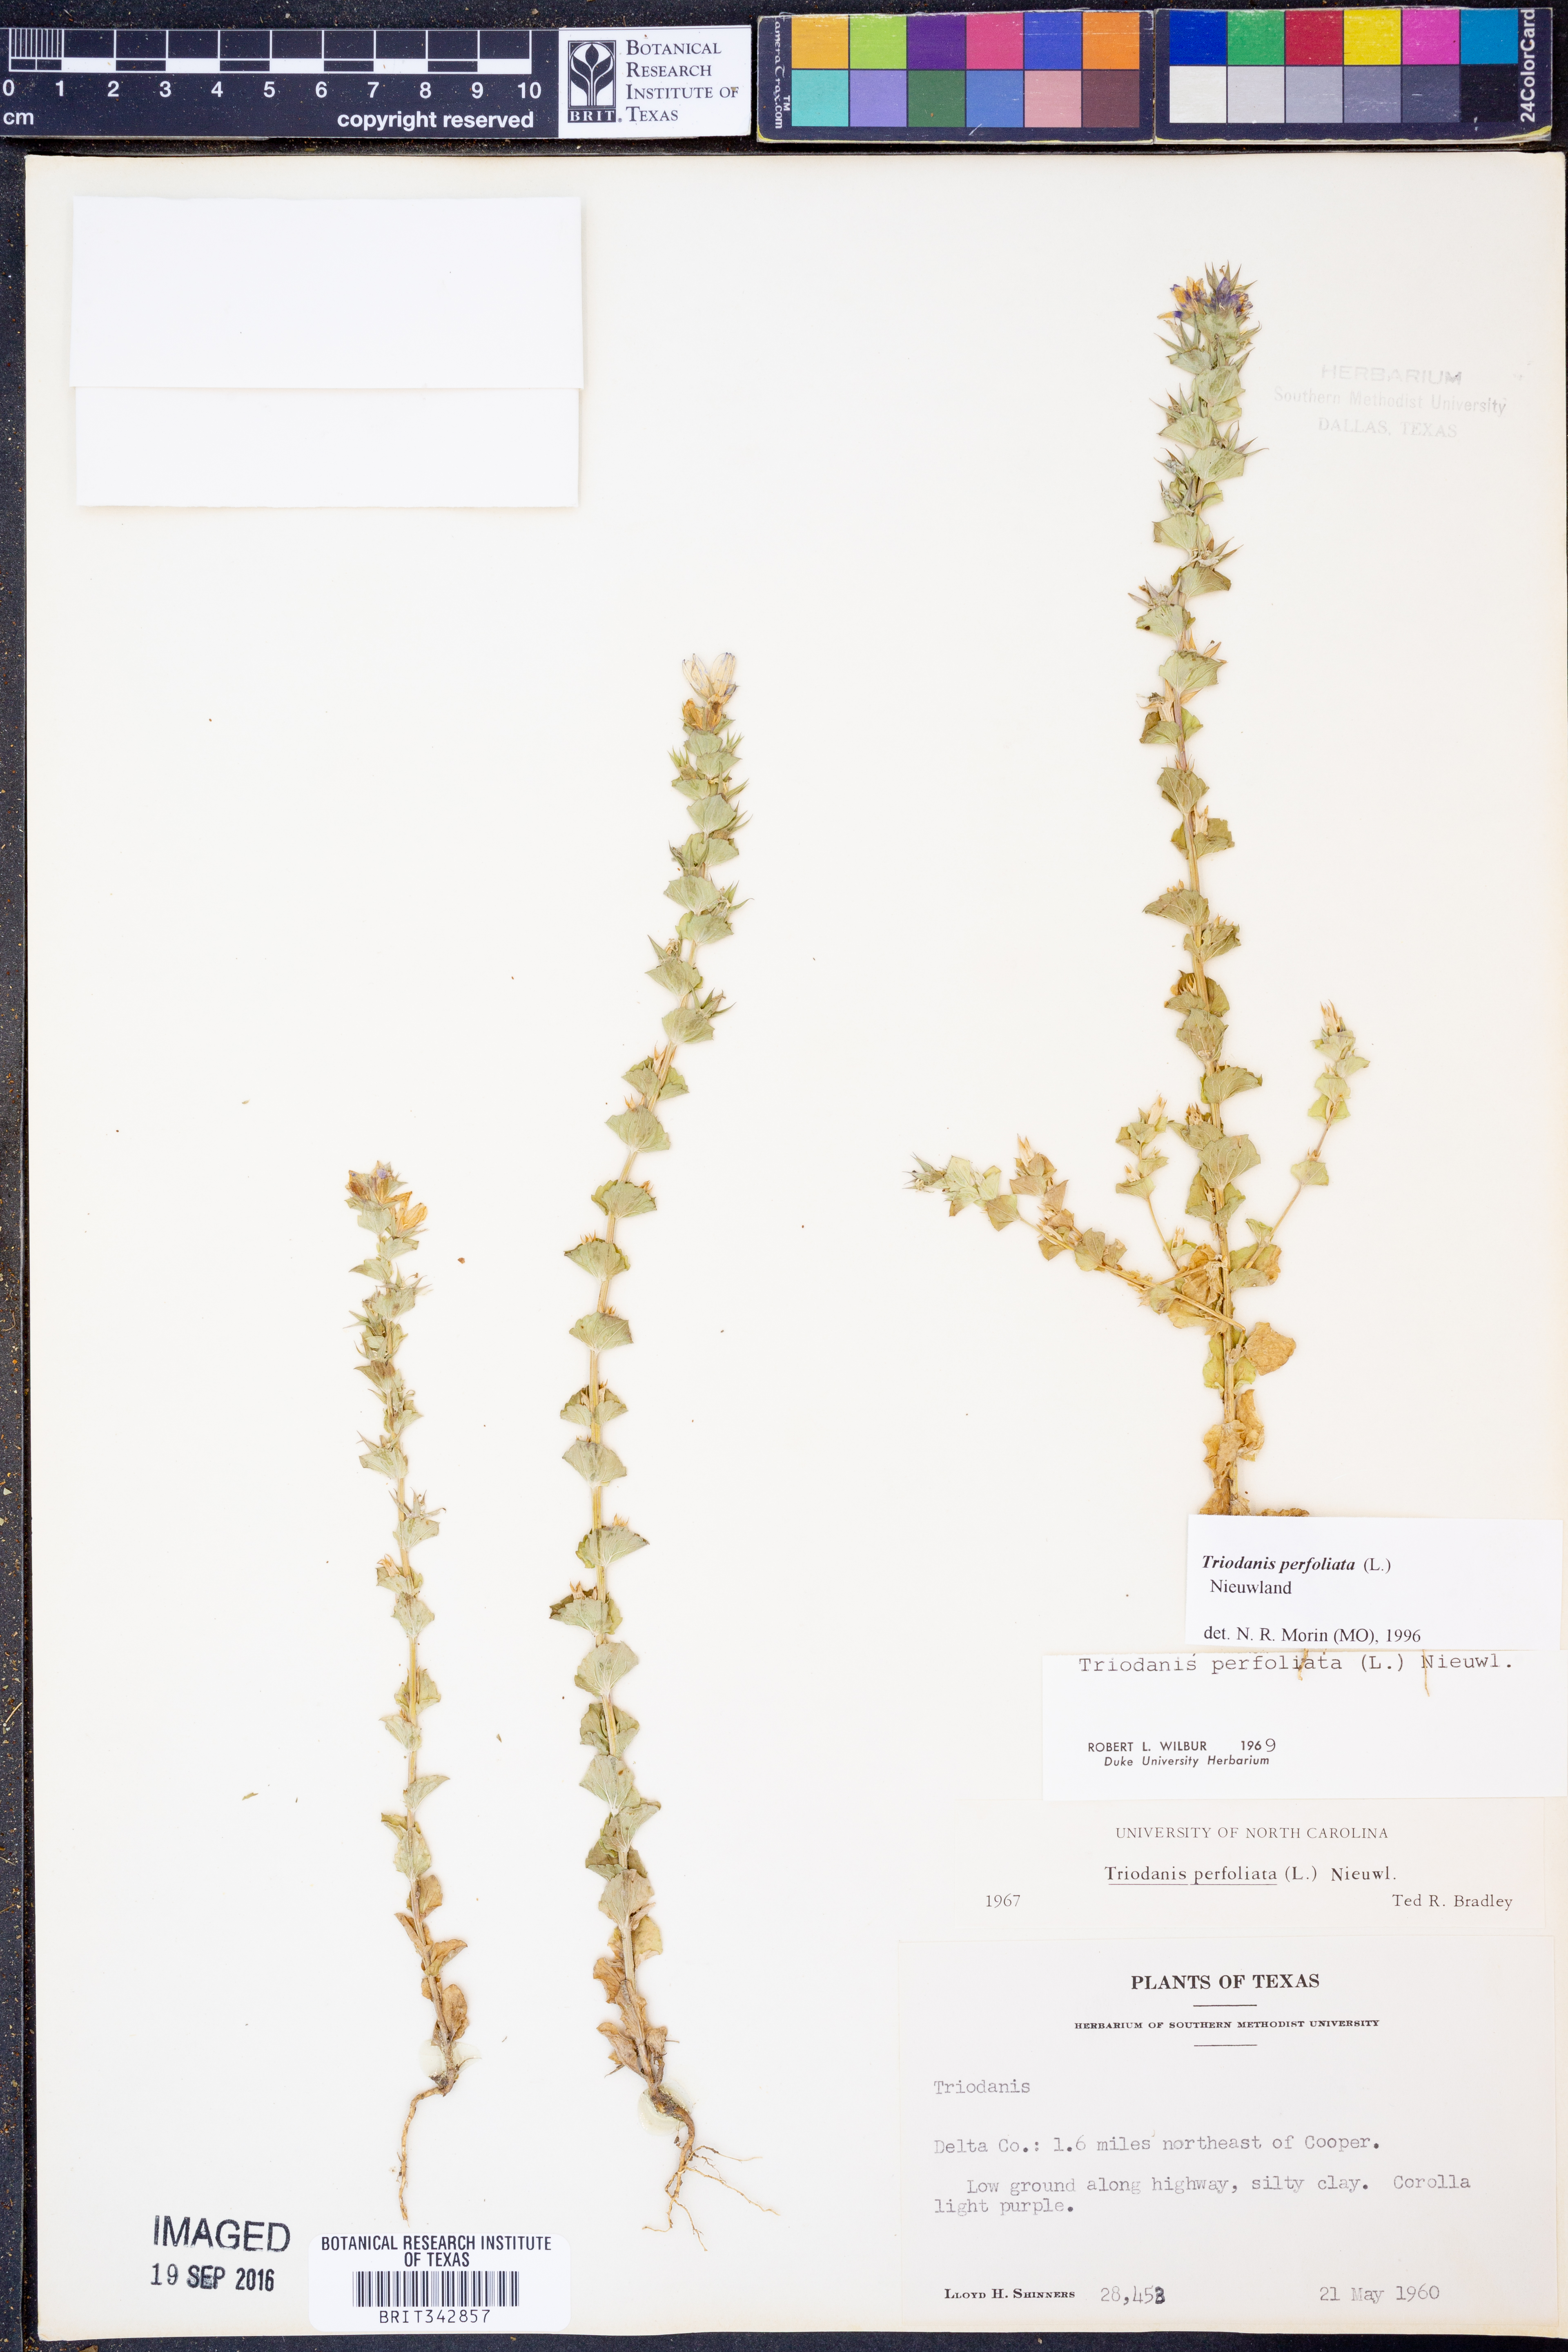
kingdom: Plantae
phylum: Tracheophyta
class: Magnoliopsida
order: Asterales
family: Campanulaceae
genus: Triodanis
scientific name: Triodanis perfoliata
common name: Clasping venus' looking-glass
